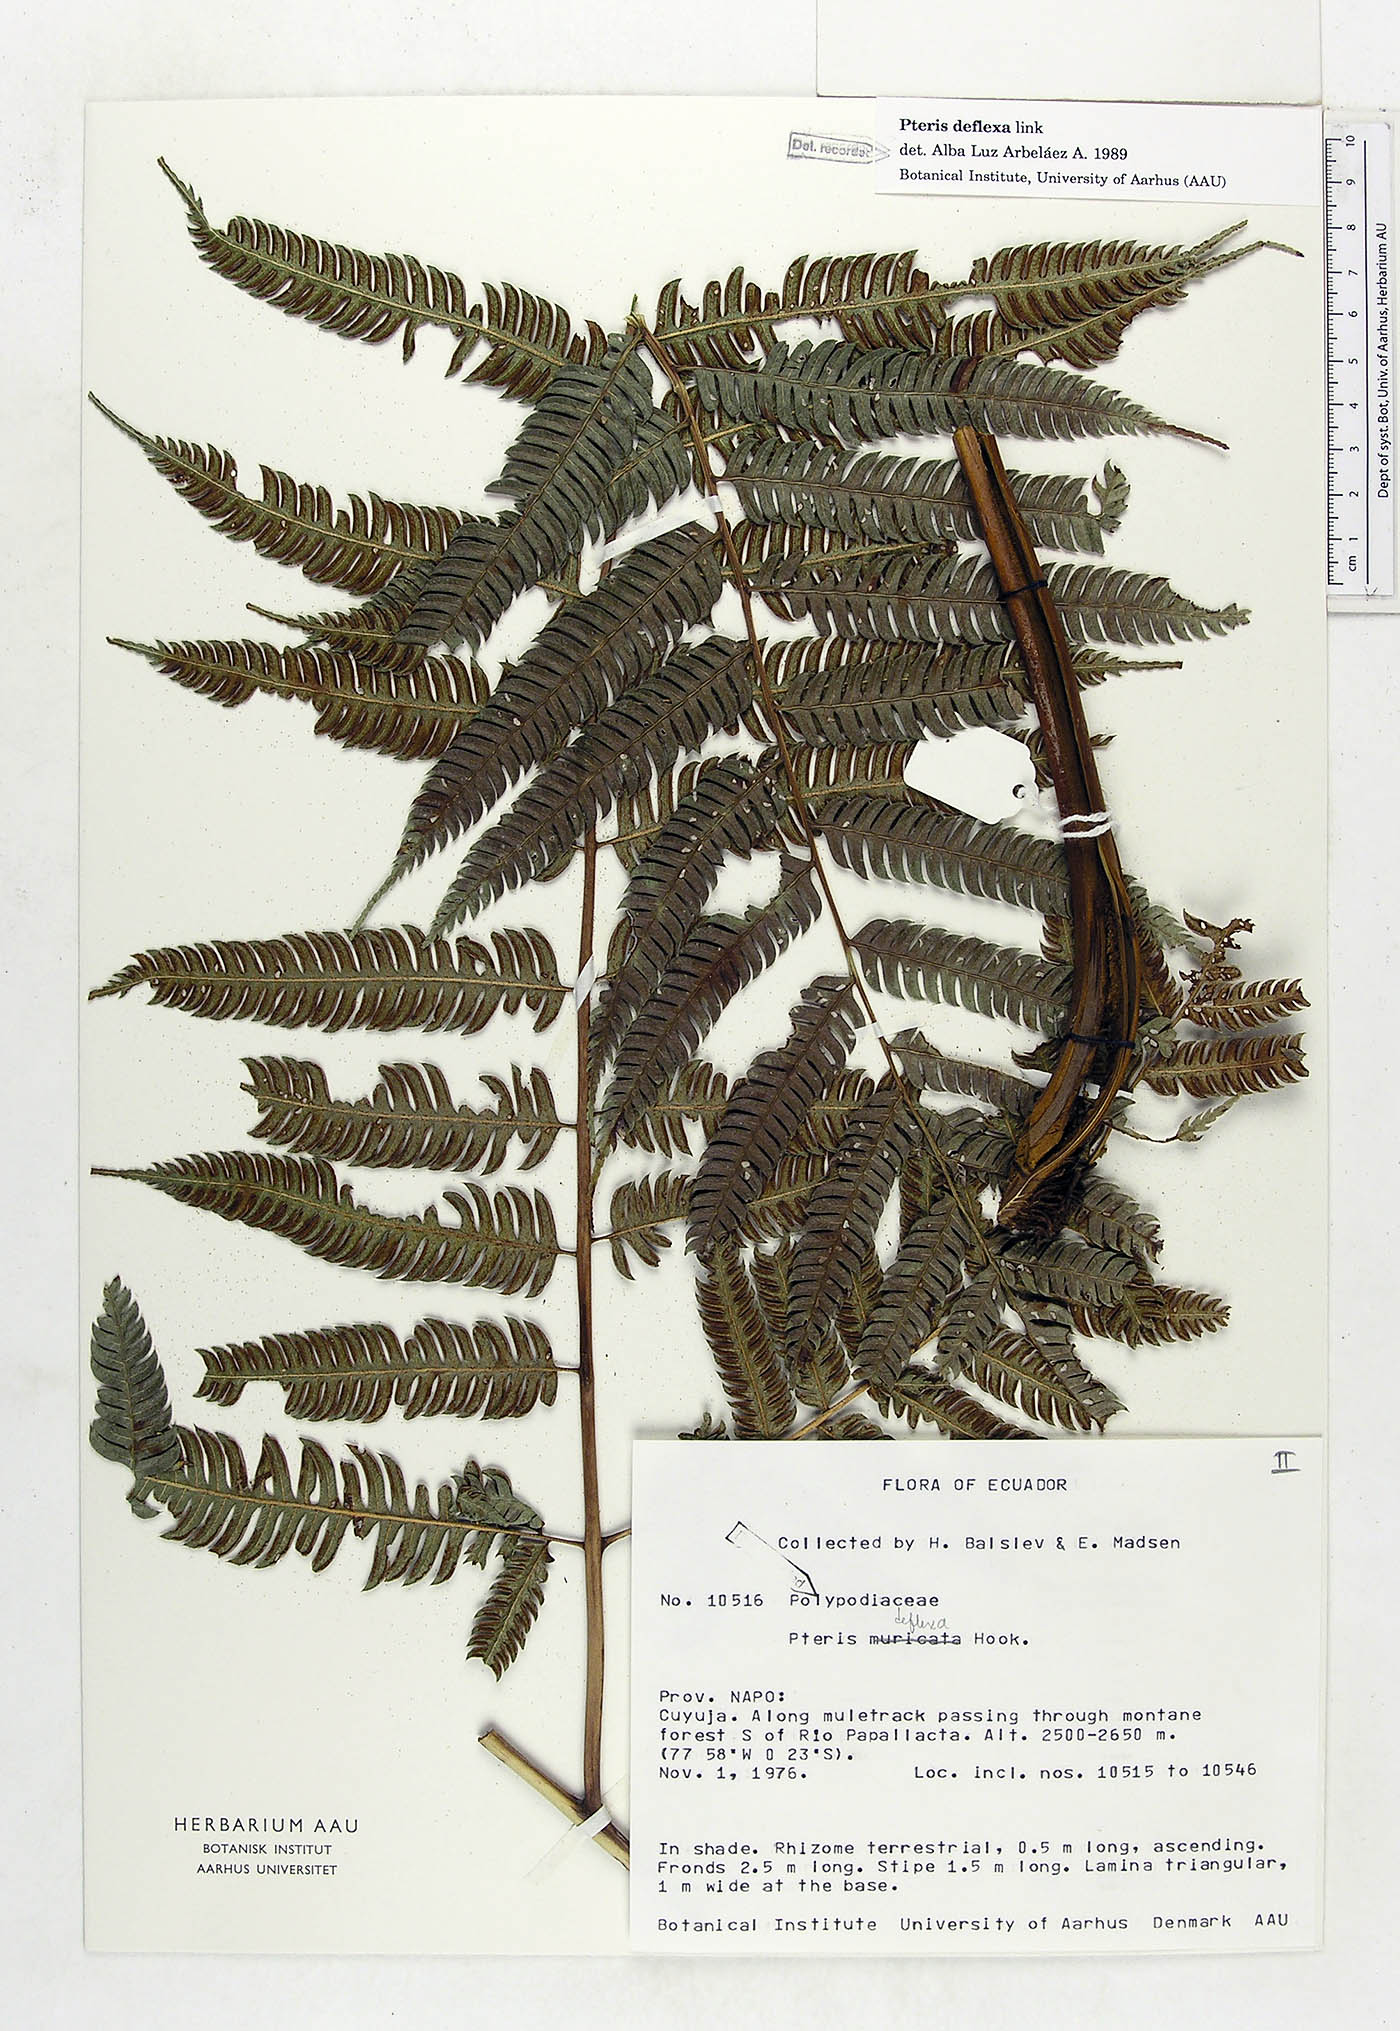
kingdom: Plantae
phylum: Tracheophyta
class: Polypodiopsida
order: Polypodiales
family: Pteridaceae
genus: Pteris
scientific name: Pteris deflexa
